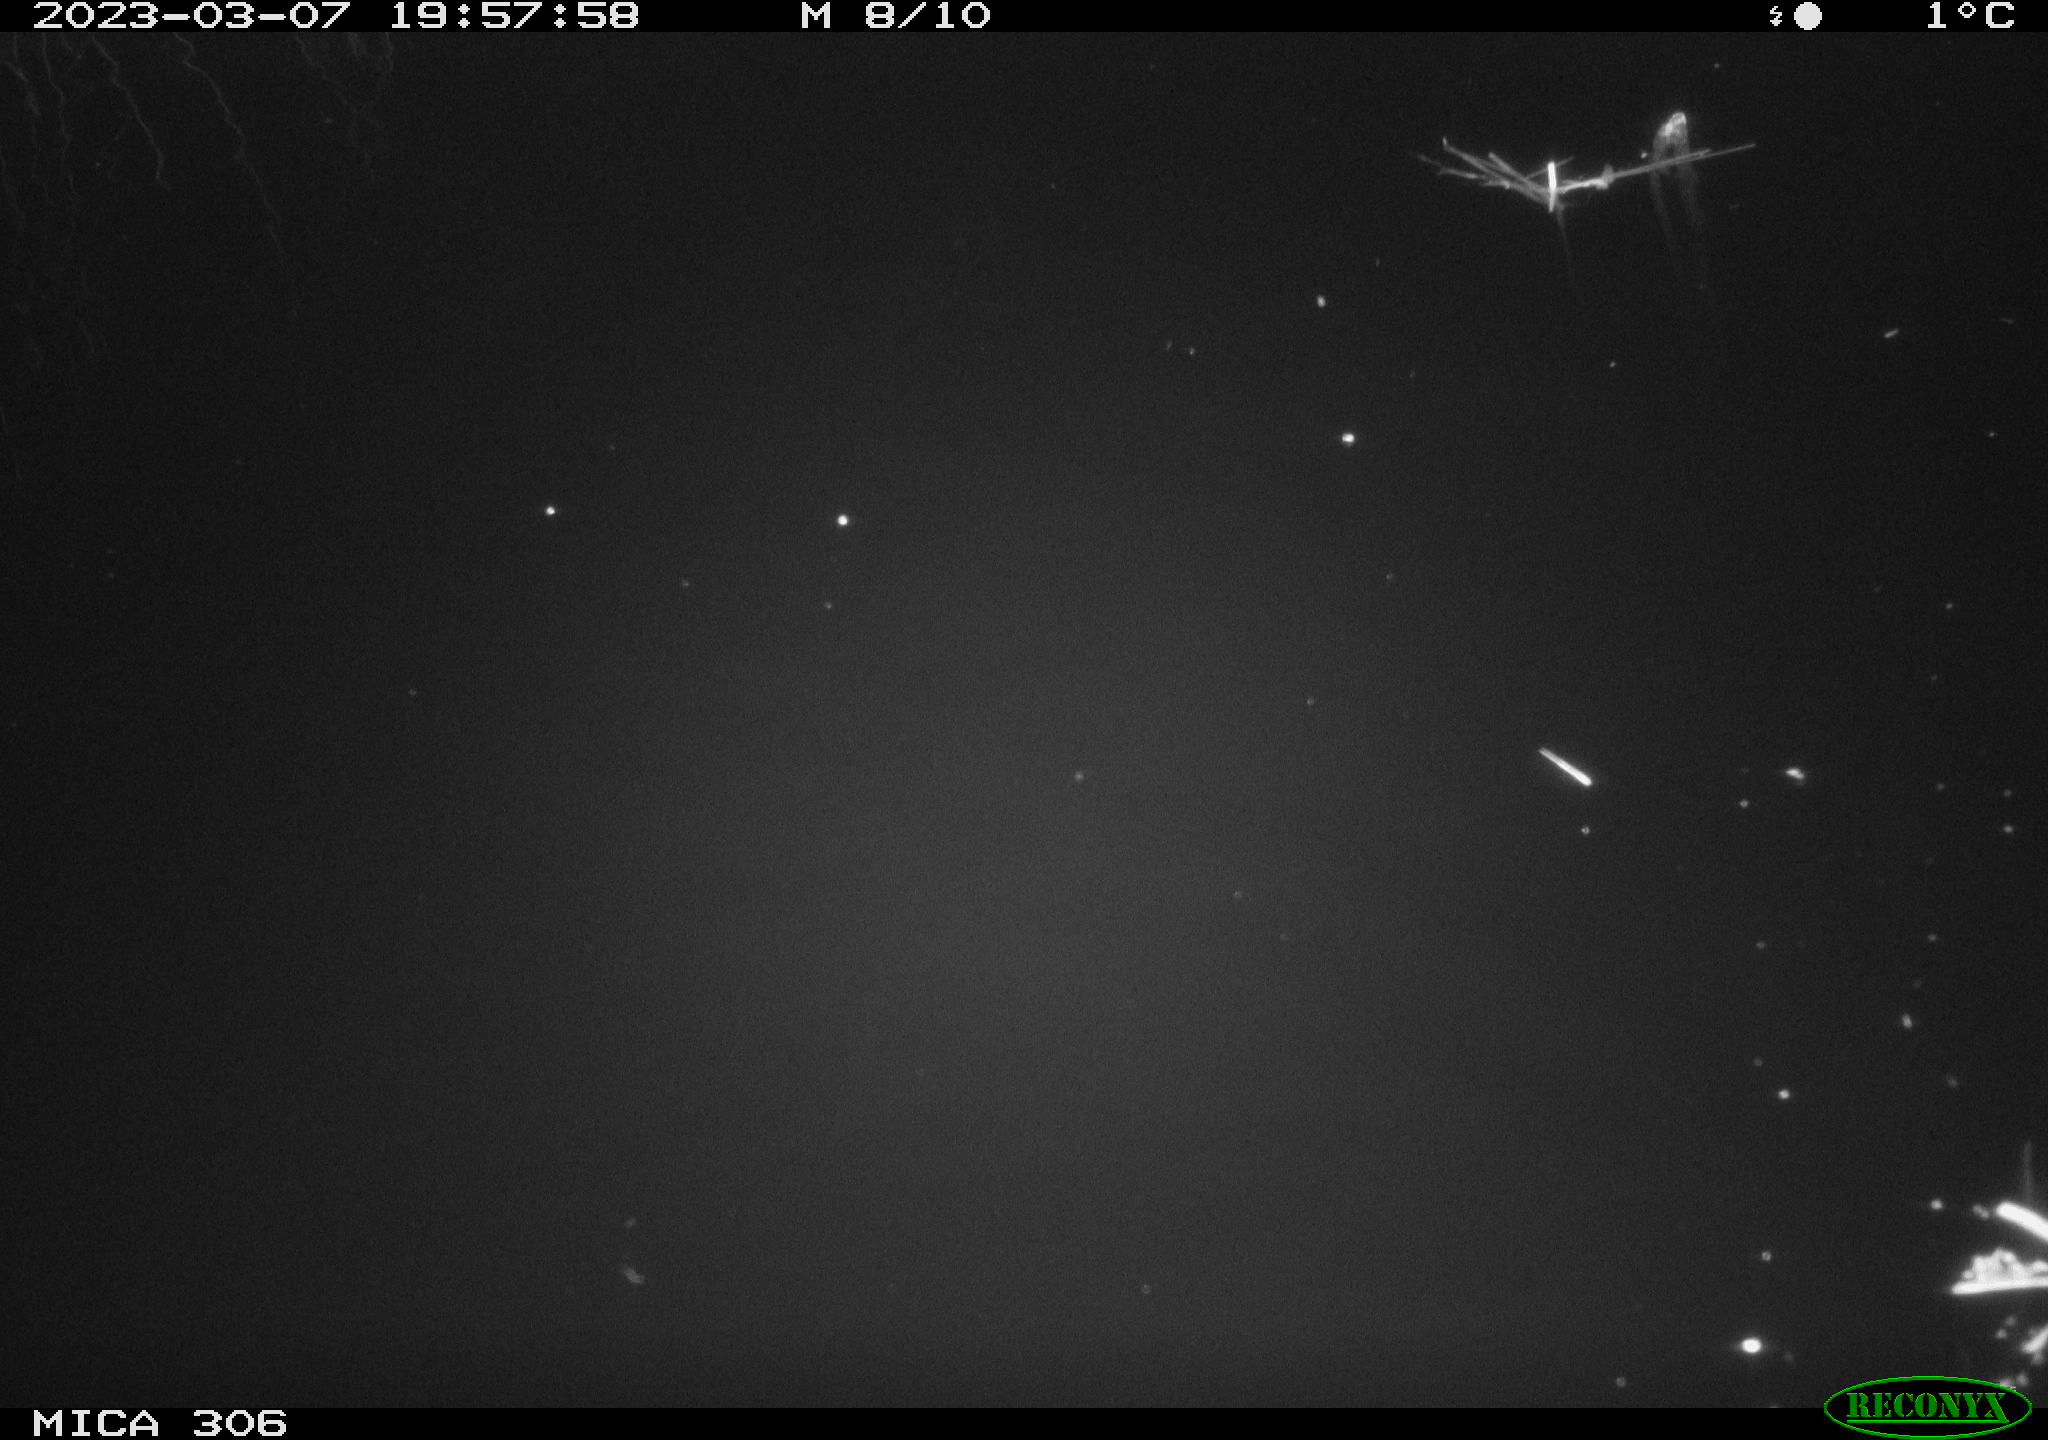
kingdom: Animalia
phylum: Chordata
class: Mammalia
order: Rodentia
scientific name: Rodentia
